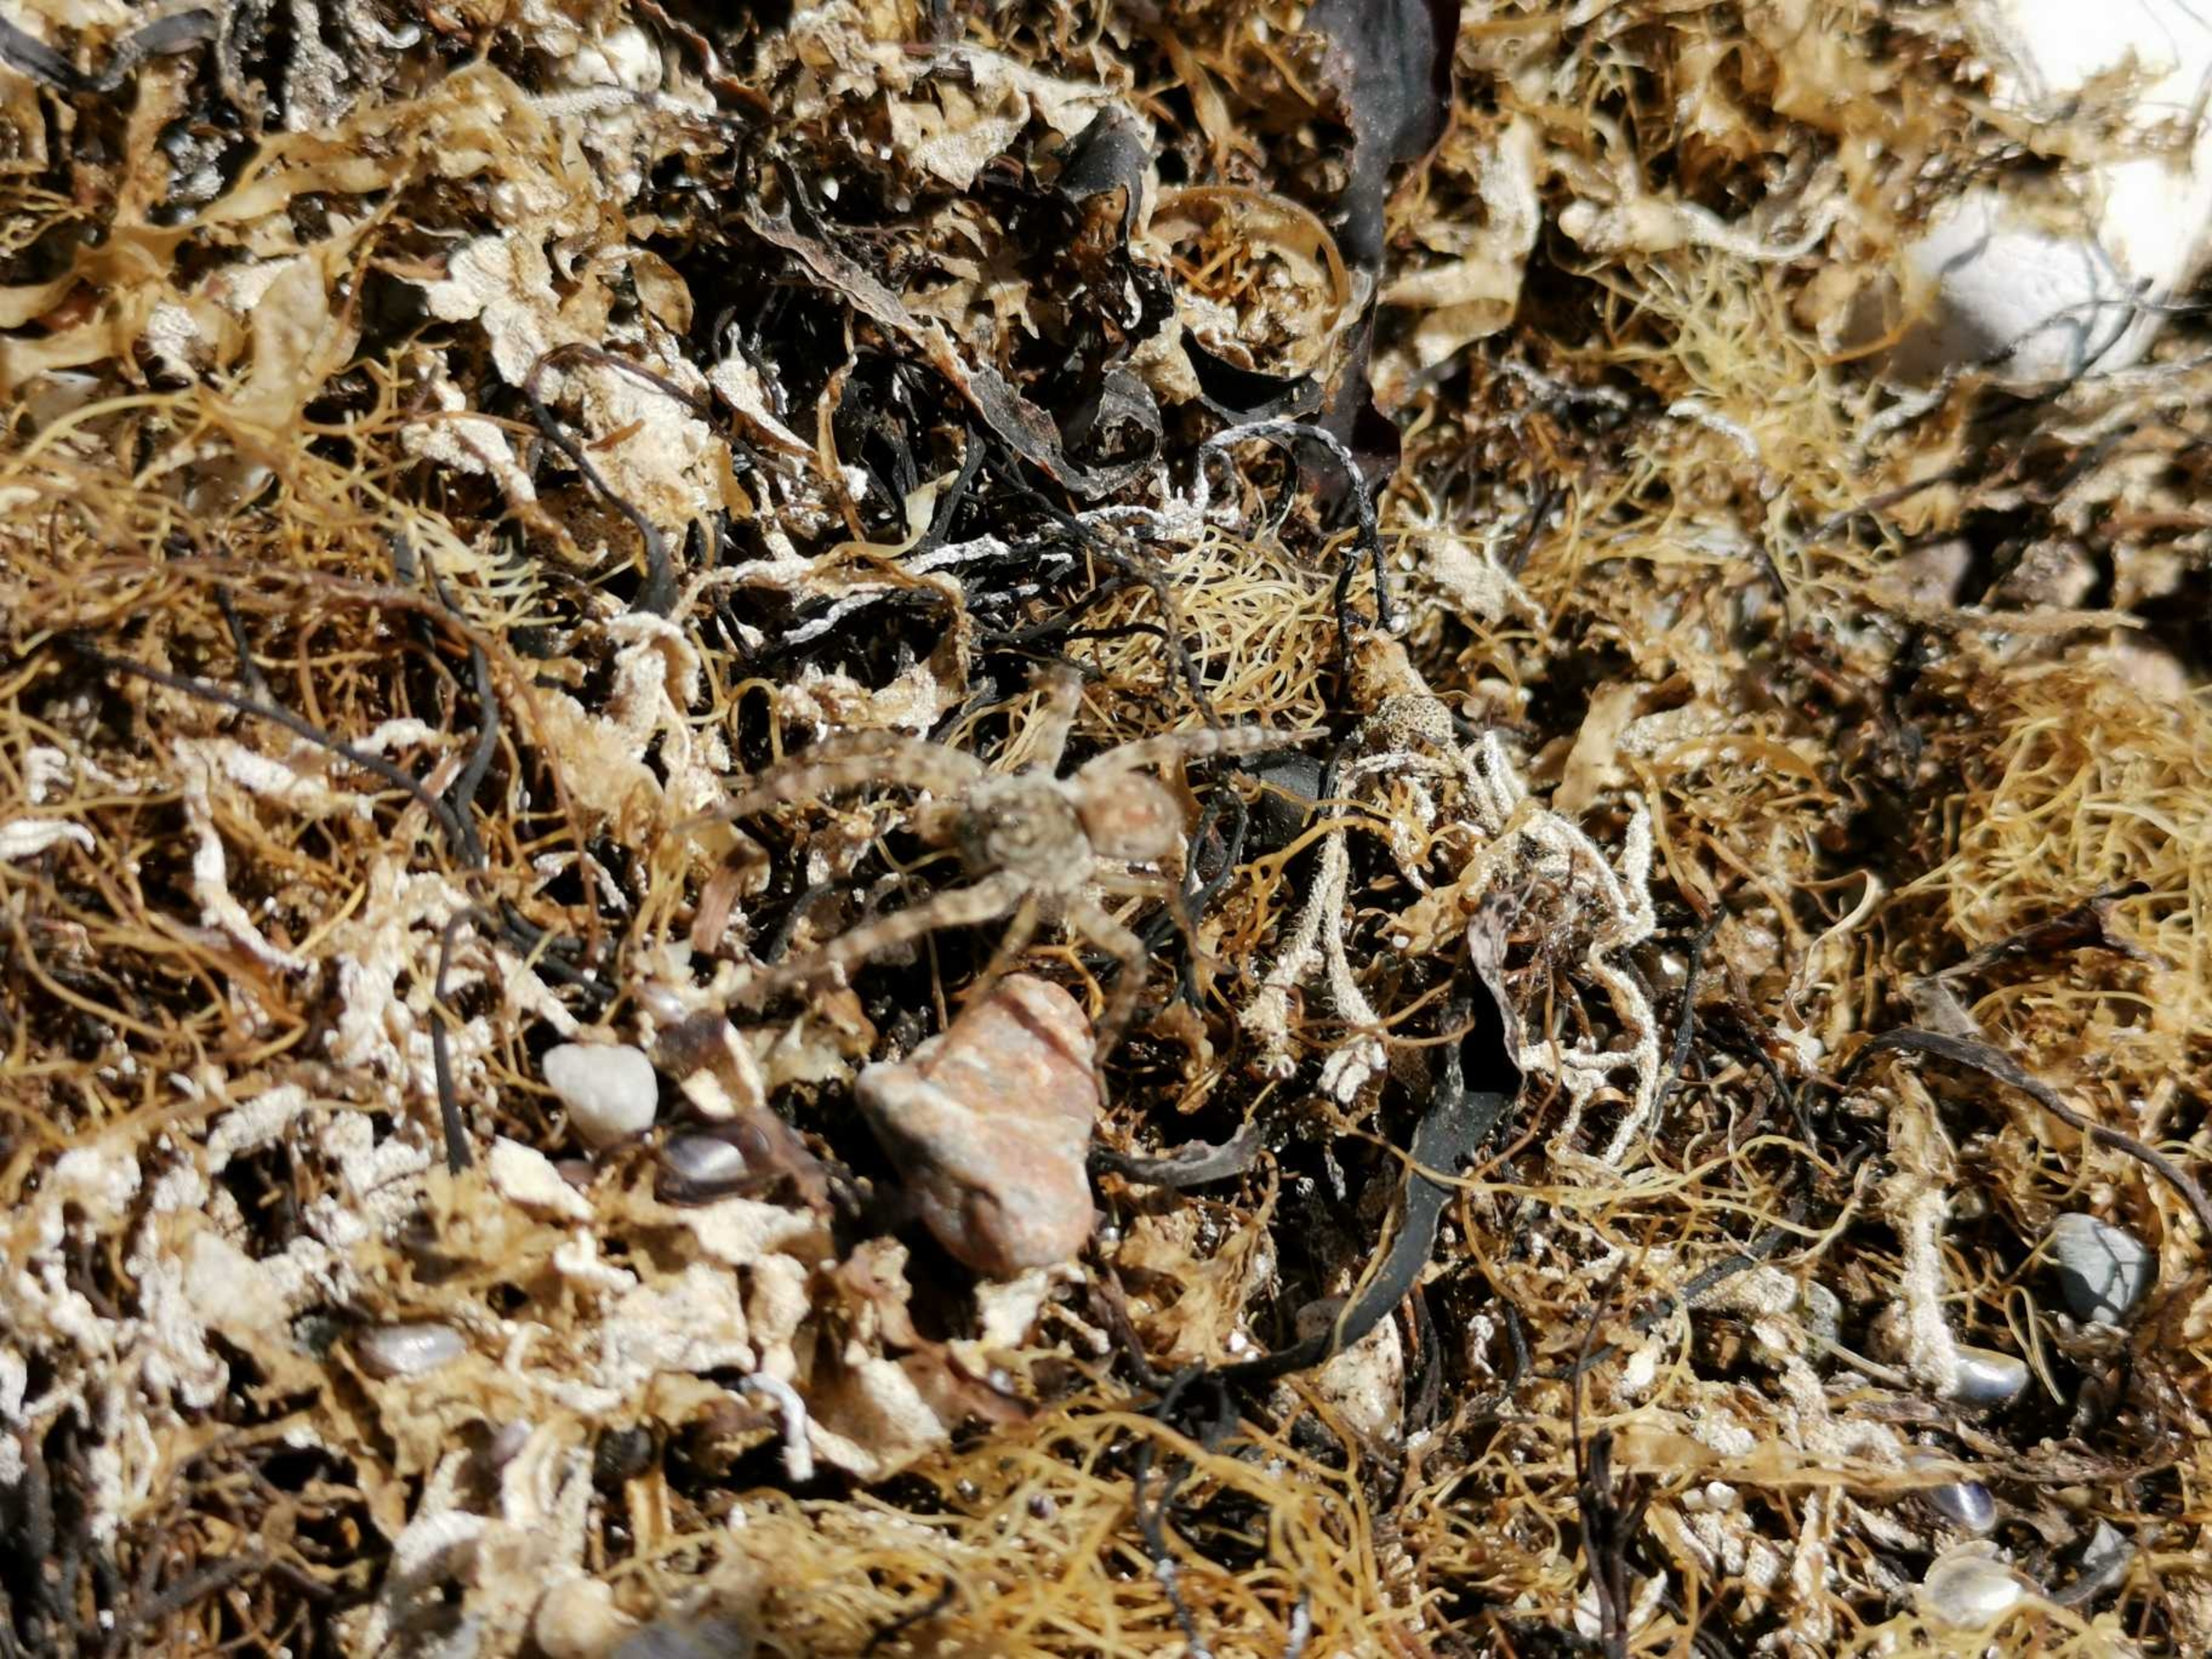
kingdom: Animalia
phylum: Arthropoda
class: Arachnida
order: Araneae
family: Lycosidae
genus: Arctosa
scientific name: Arctosa cinerea
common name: Sandgraveedderkop
